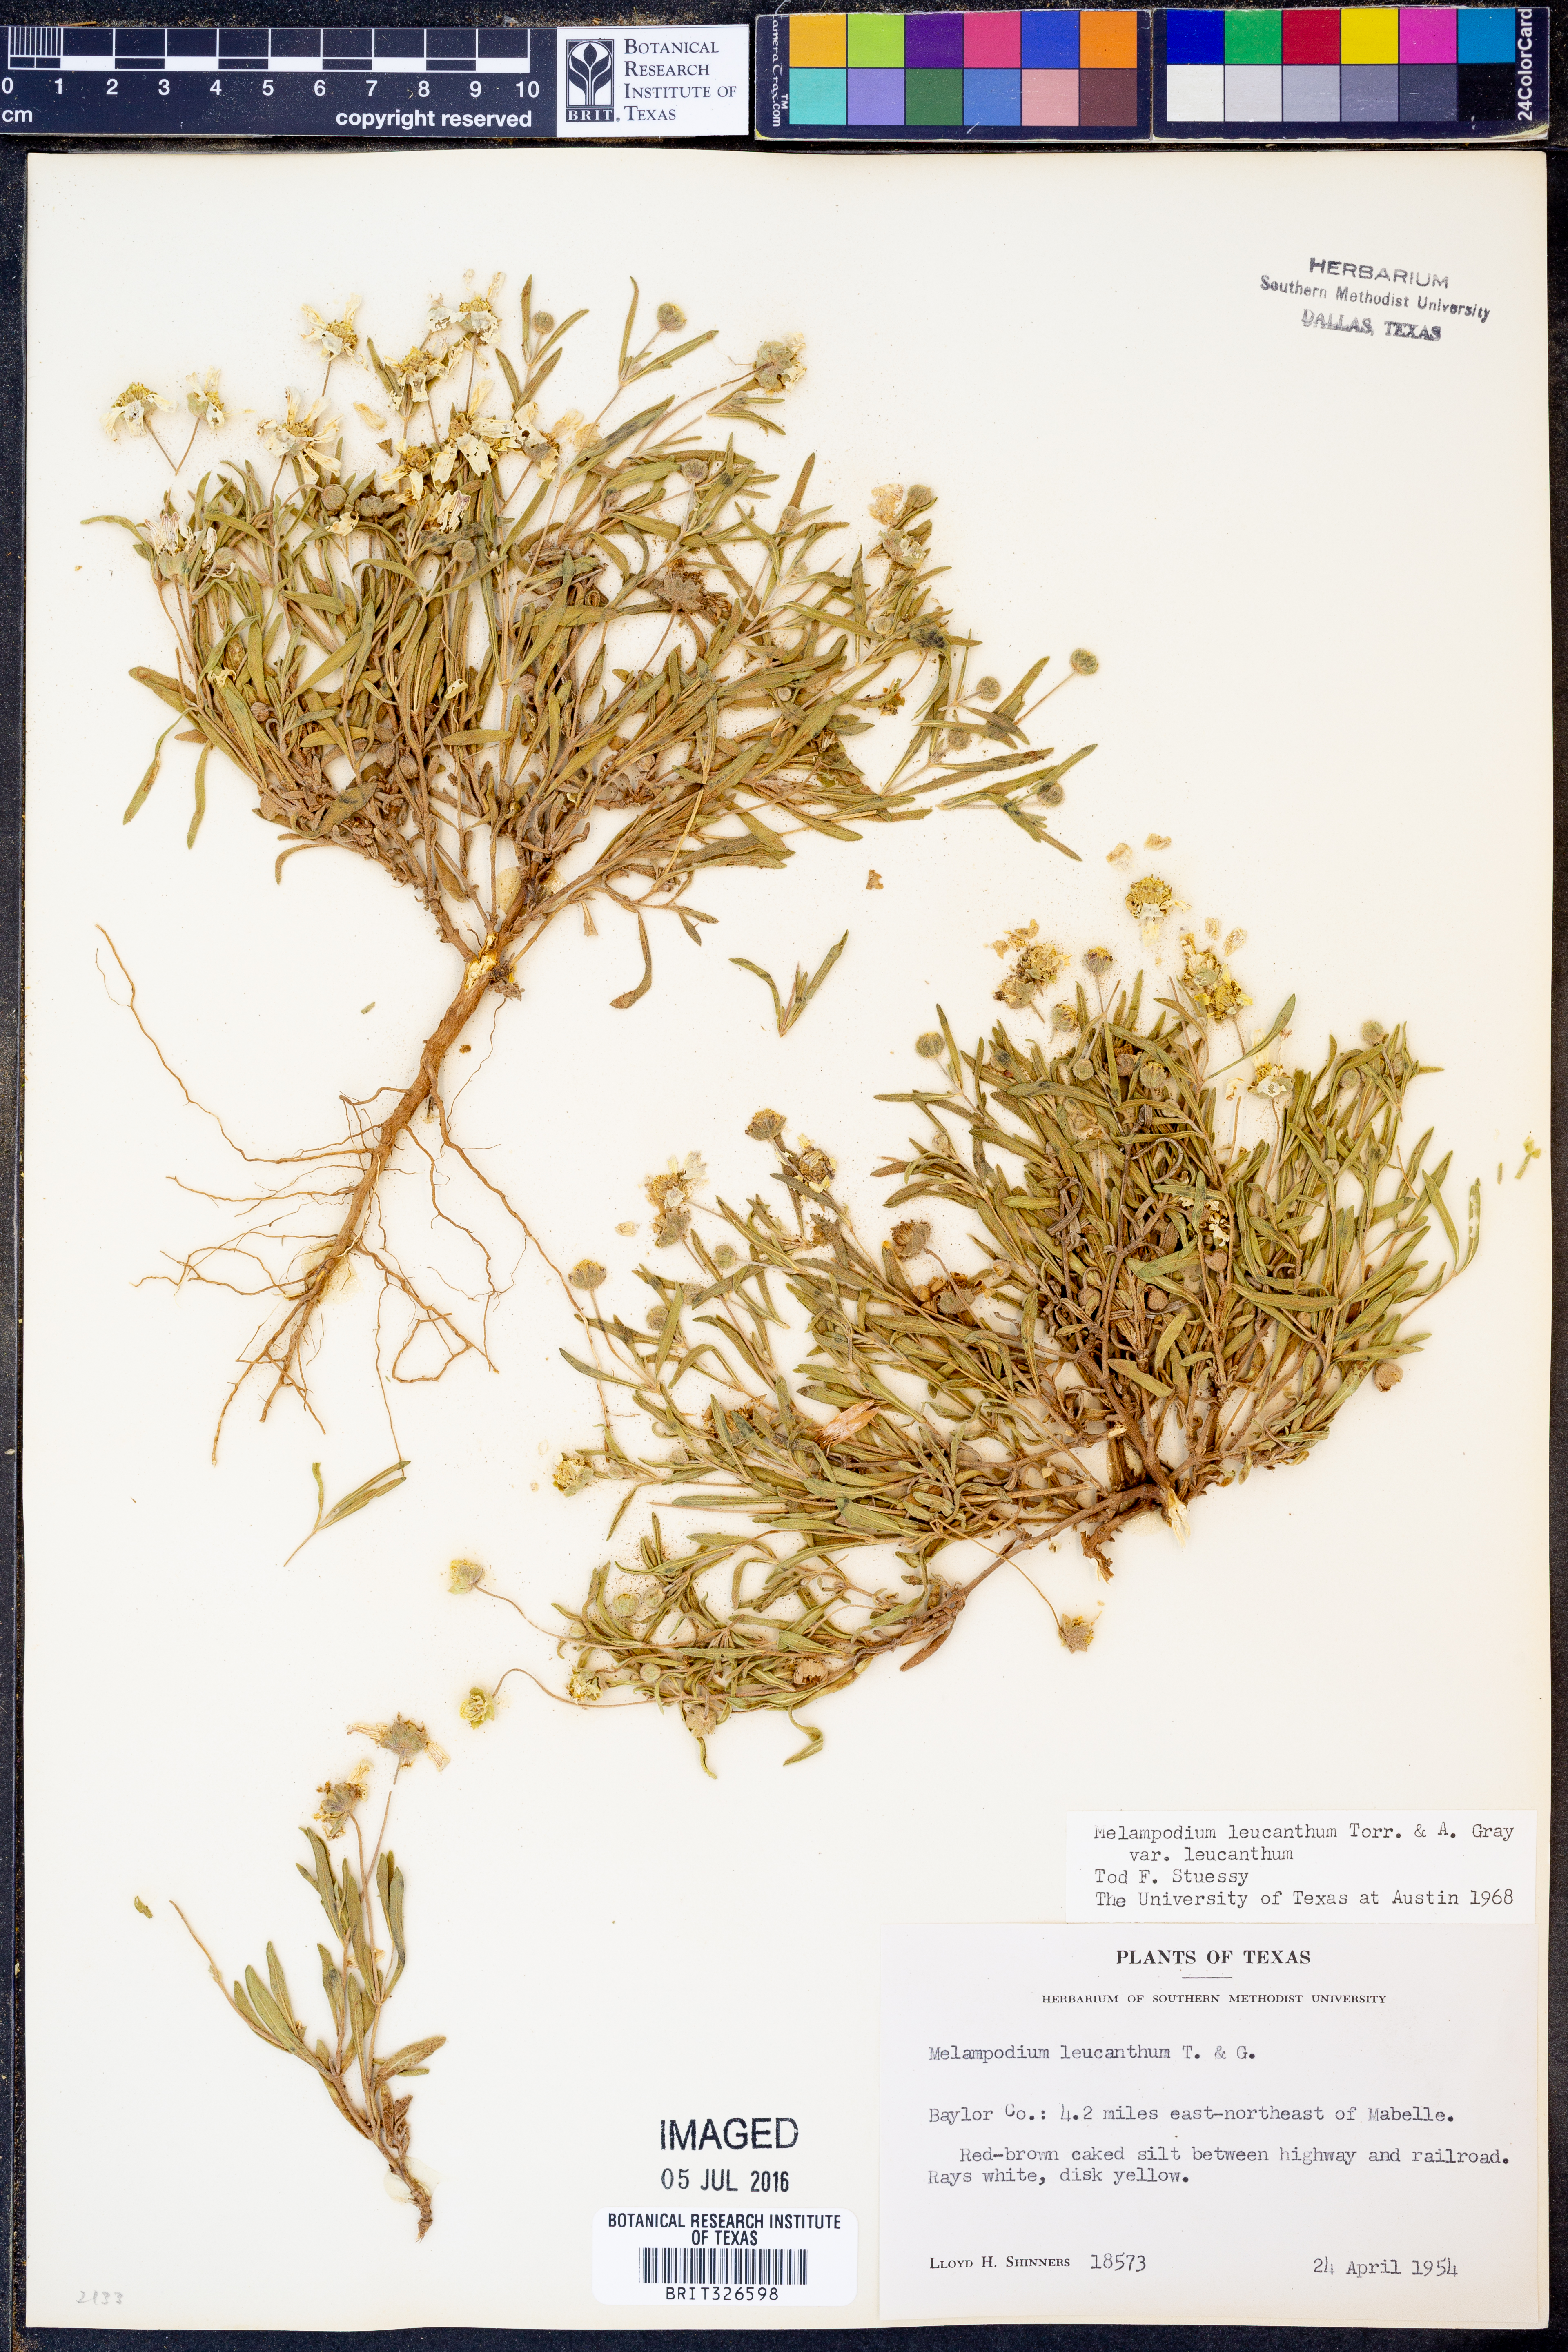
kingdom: Plantae
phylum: Tracheophyta
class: Magnoliopsida
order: Asterales
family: Asteraceae
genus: Melampodium
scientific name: Melampodium leucanthum
